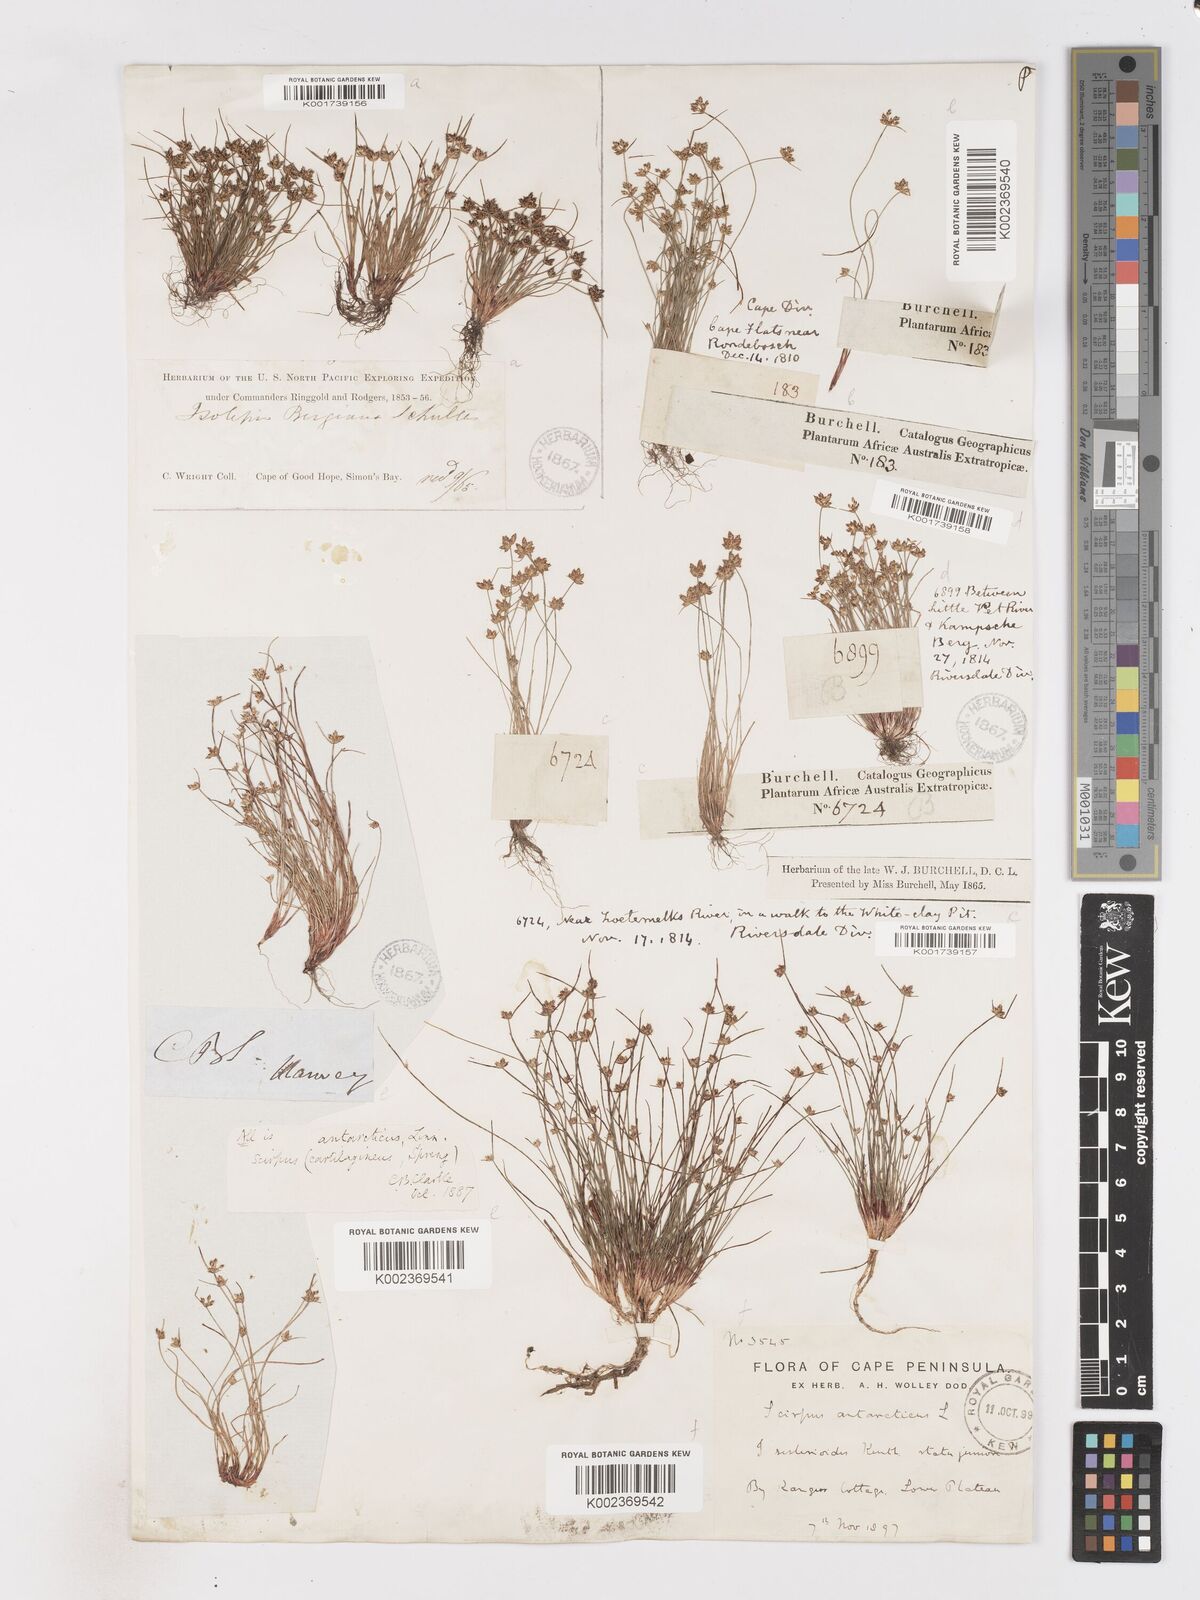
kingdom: Plantae
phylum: Tracheophyta
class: Liliopsida
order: Poales
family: Cyperaceae
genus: Isolepis
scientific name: Isolepis marginata
